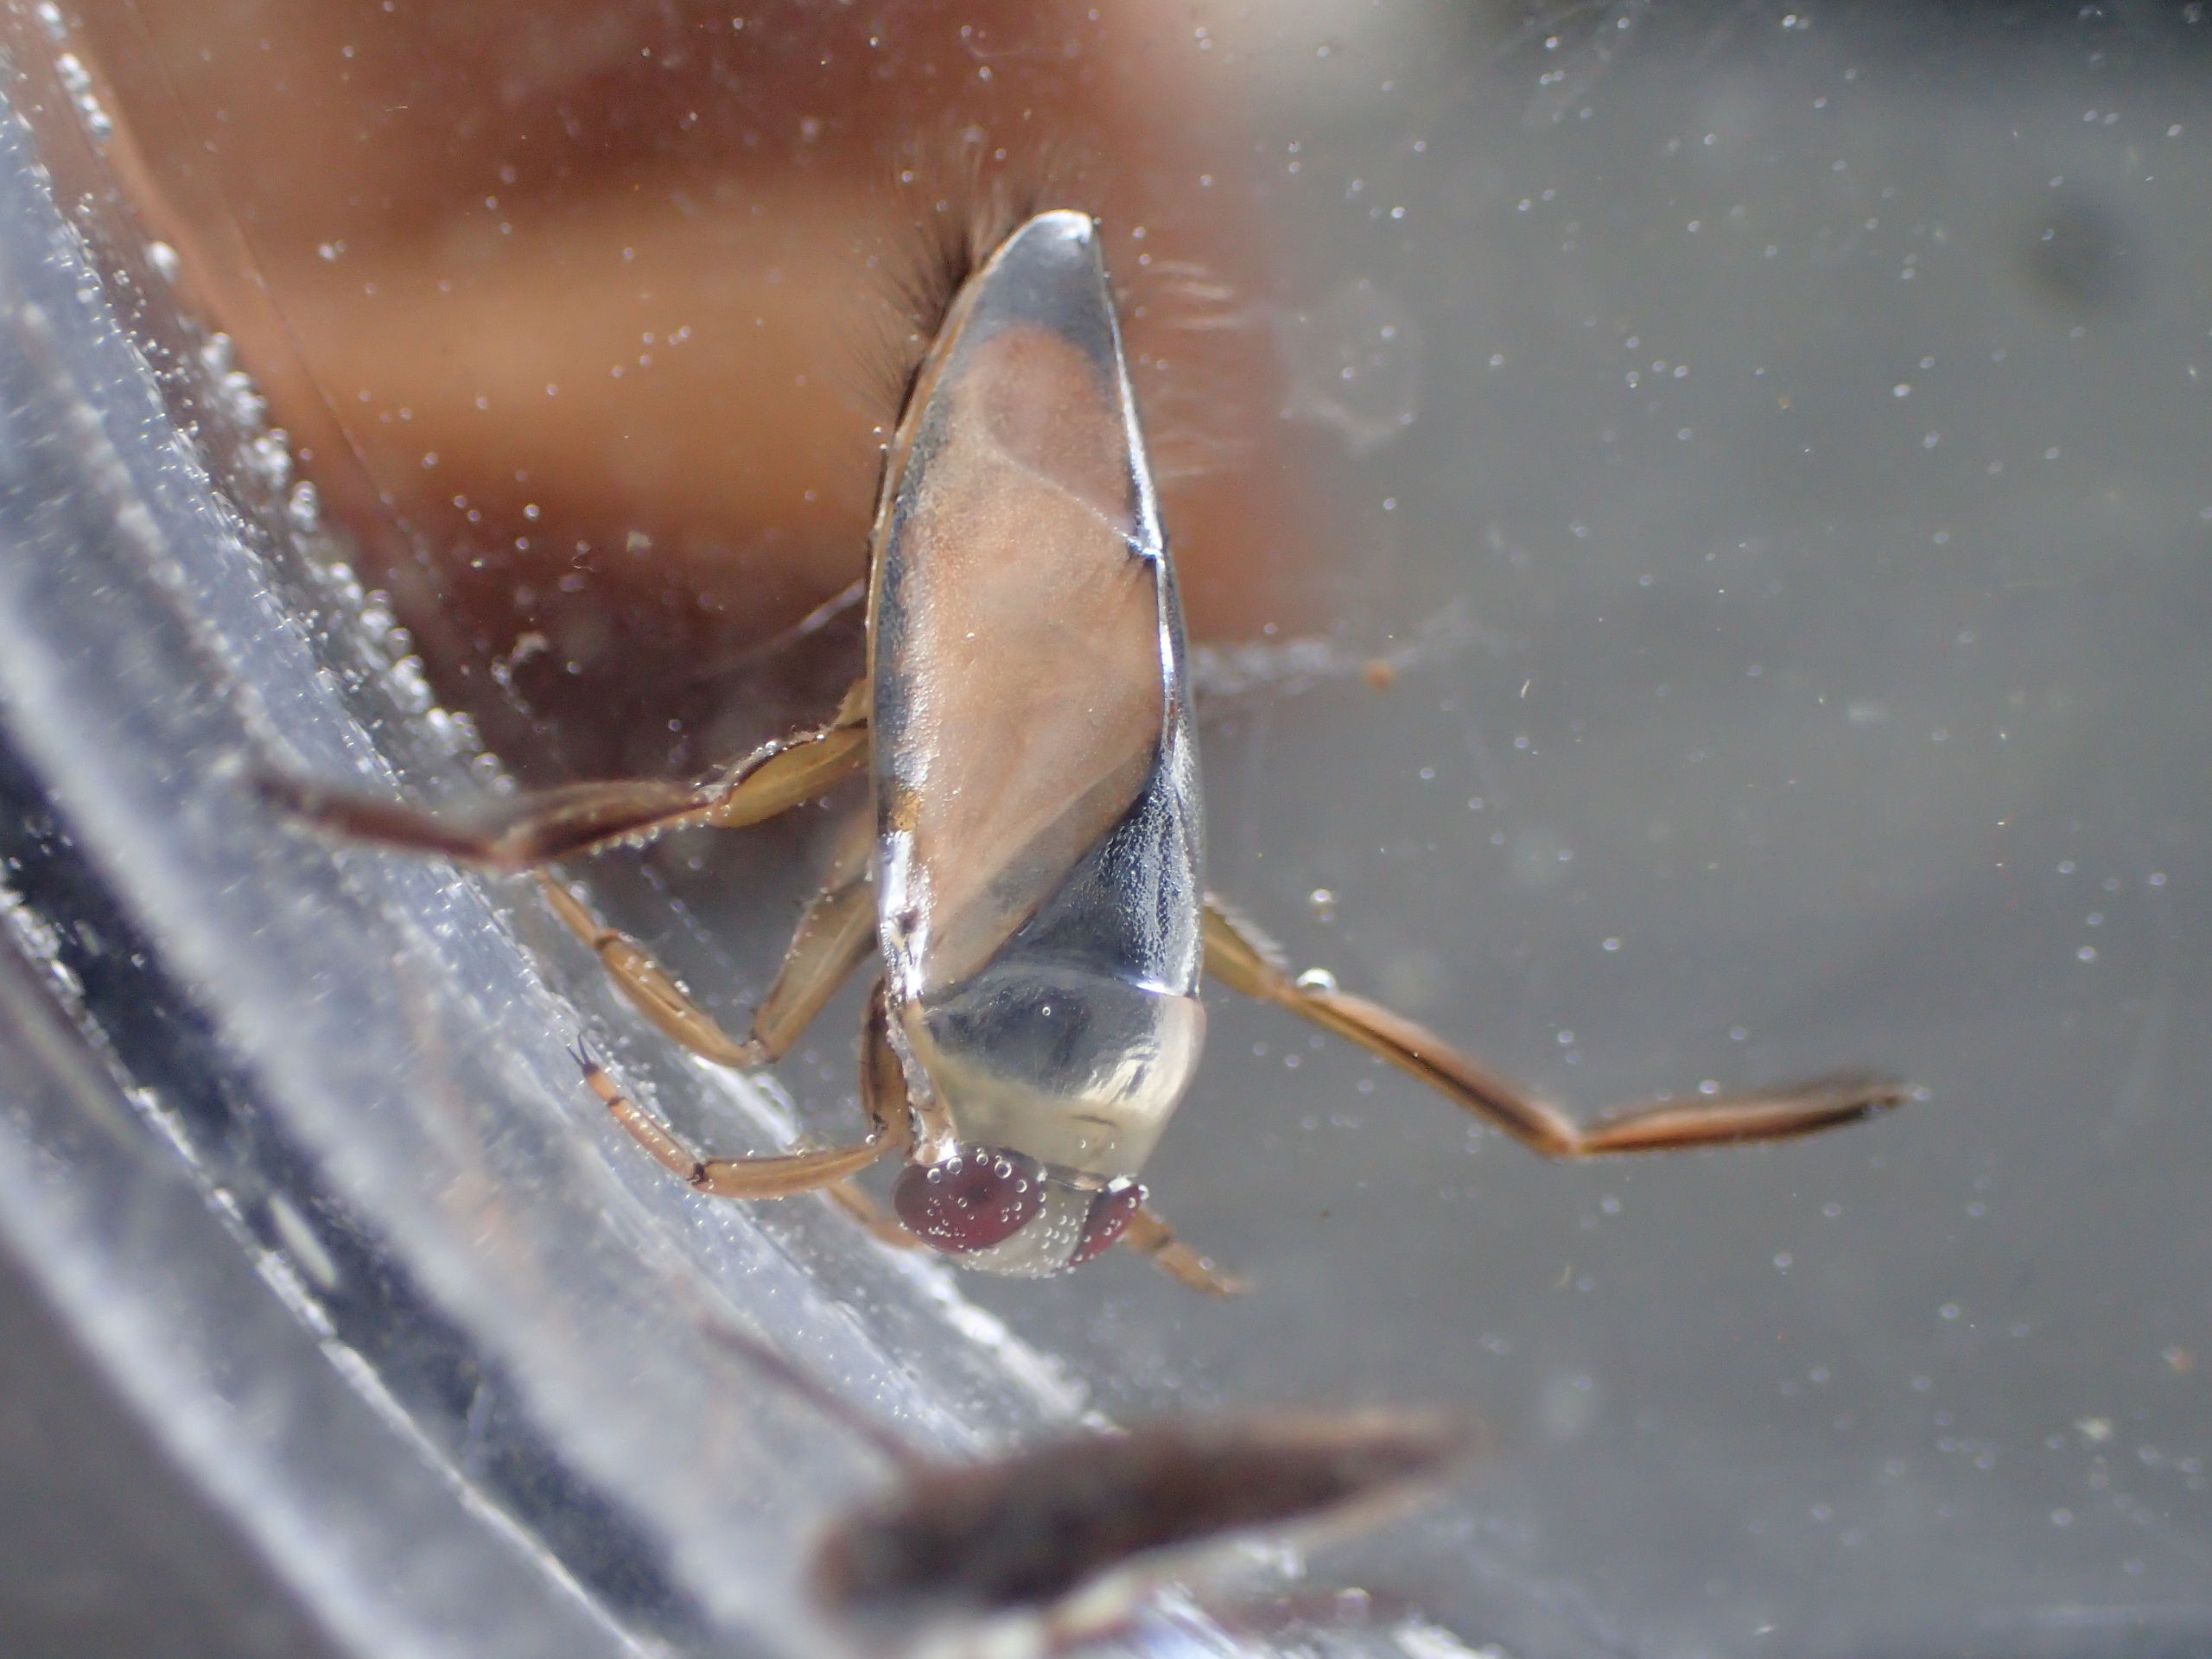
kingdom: Animalia
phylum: Arthropoda
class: Insecta
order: Hemiptera
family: Notonectidae
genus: Notonecta
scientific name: Notonecta glauca
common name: Almindelig rygsvømmer
